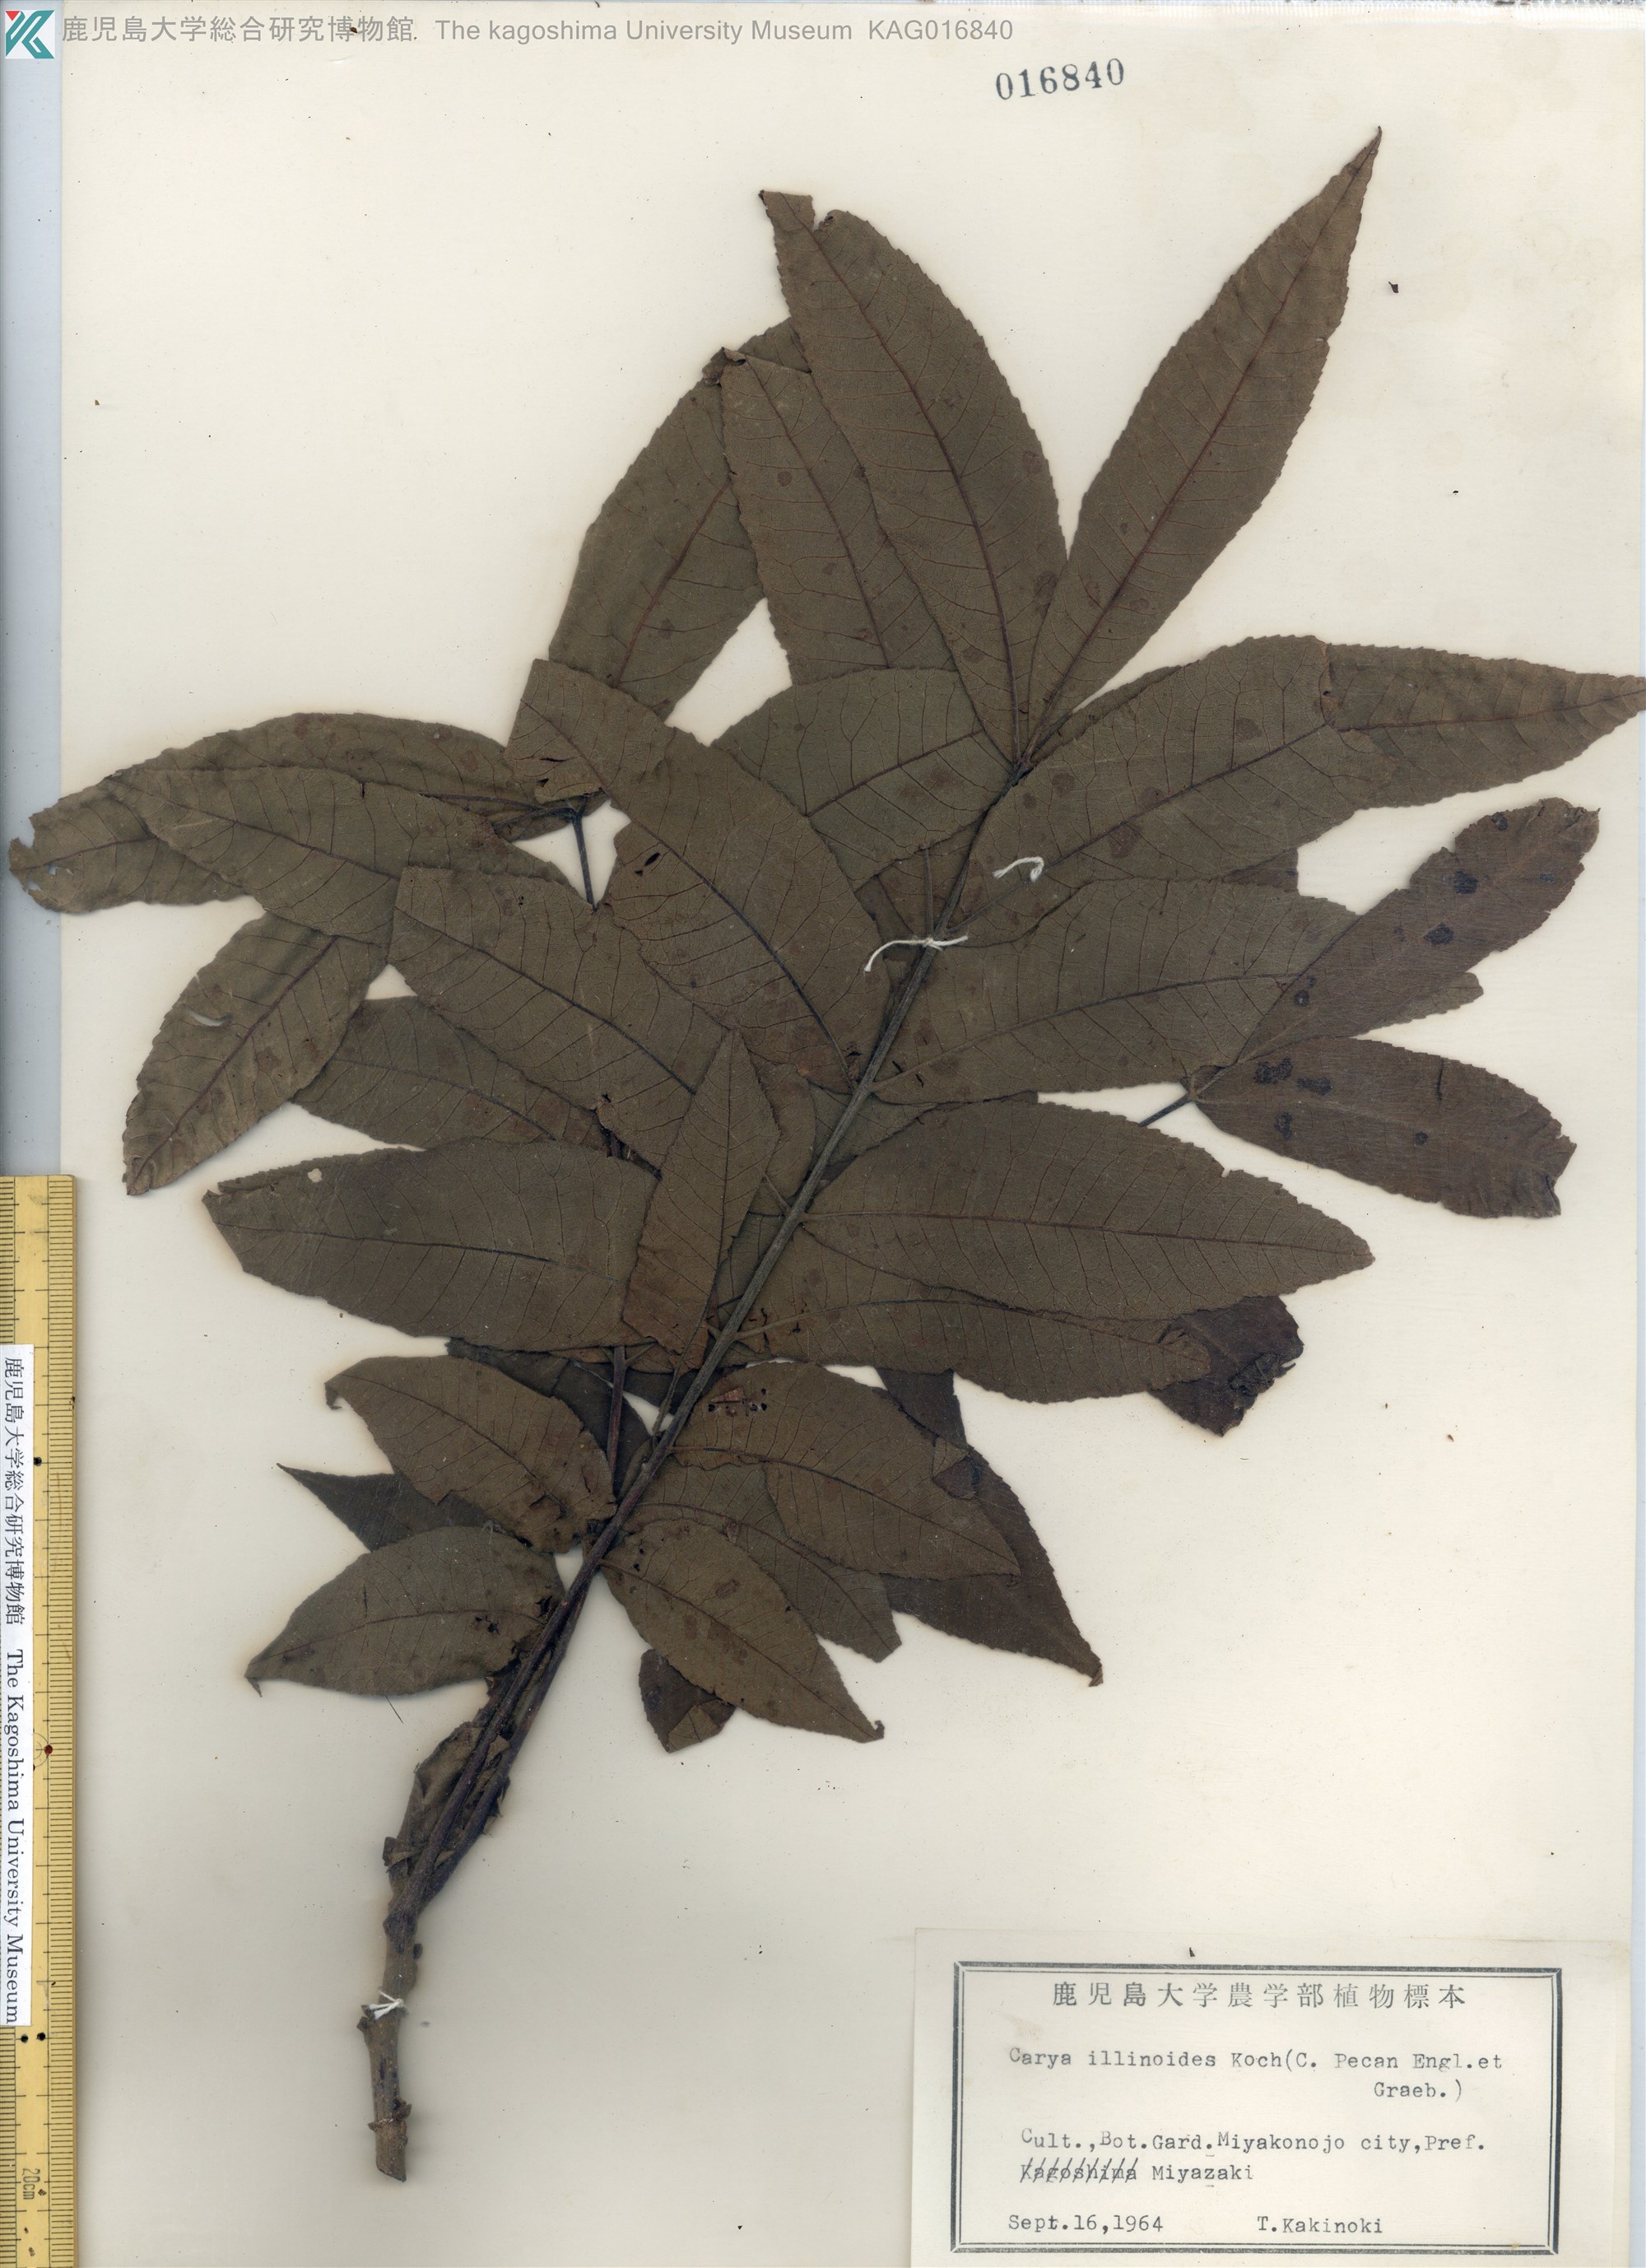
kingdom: Plantae
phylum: Tracheophyta
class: Magnoliopsida
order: Fagales
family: Juglandaceae
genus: Carya
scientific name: Carya illinoinensis
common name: Pecan
